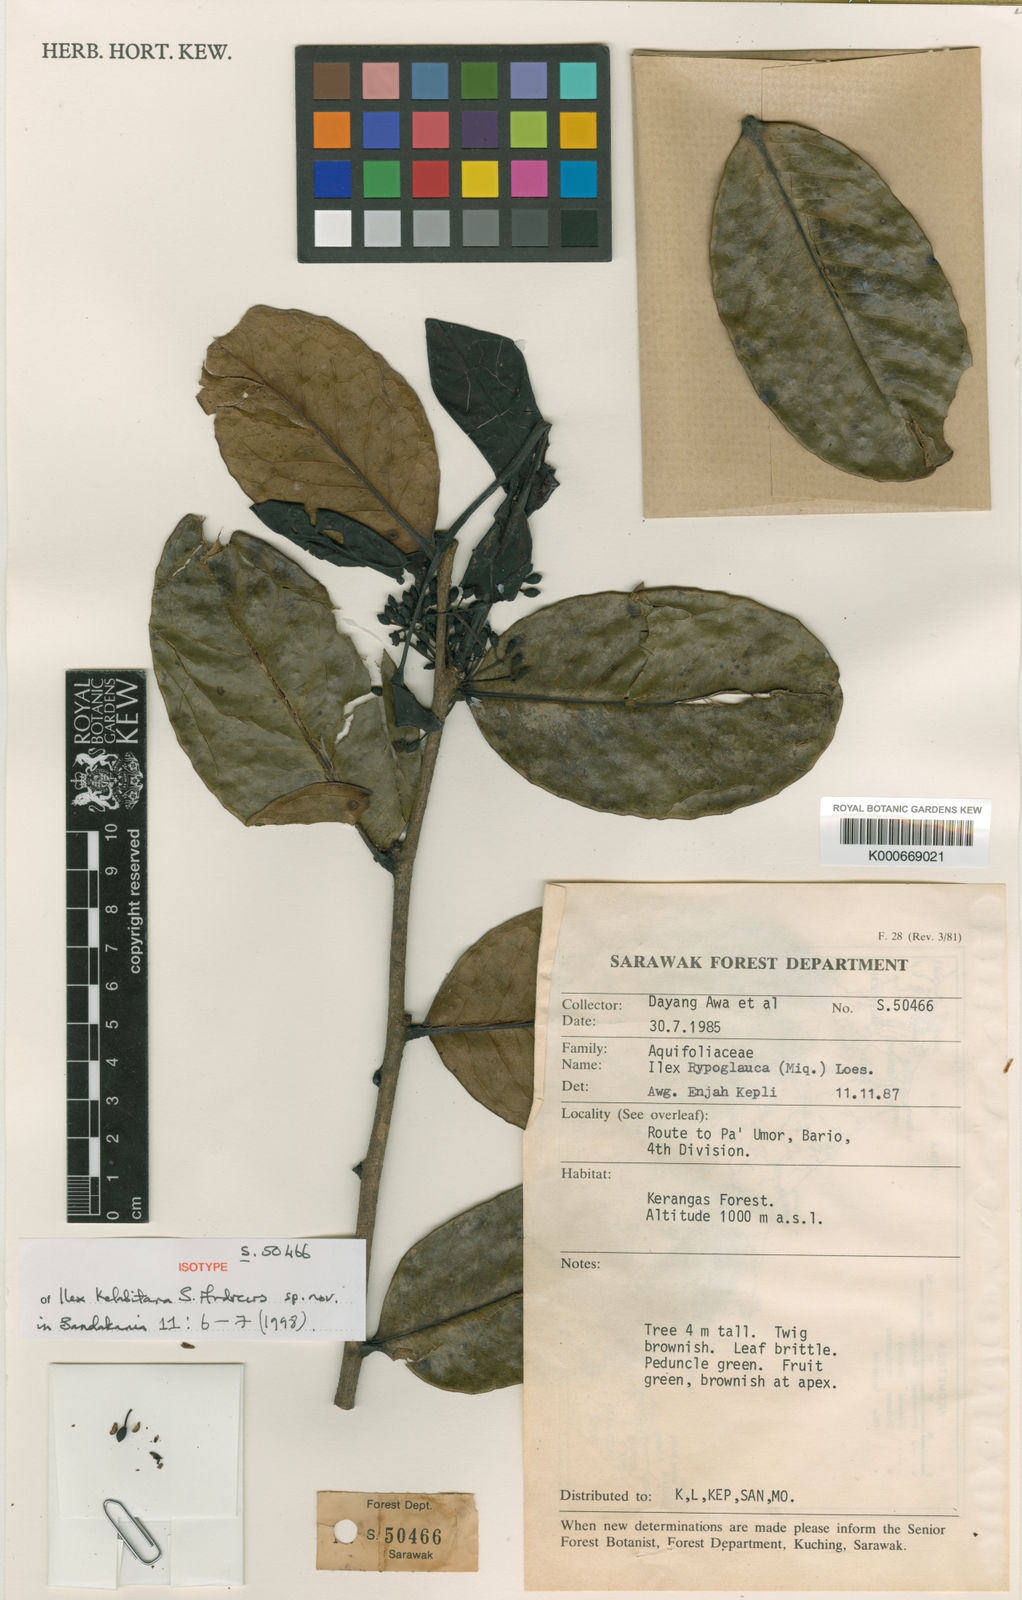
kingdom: Plantae
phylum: Tracheophyta
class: Magnoliopsida
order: Aquifoliales
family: Aquifoliaceae
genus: Ilex
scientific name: Ilex kelabitana
